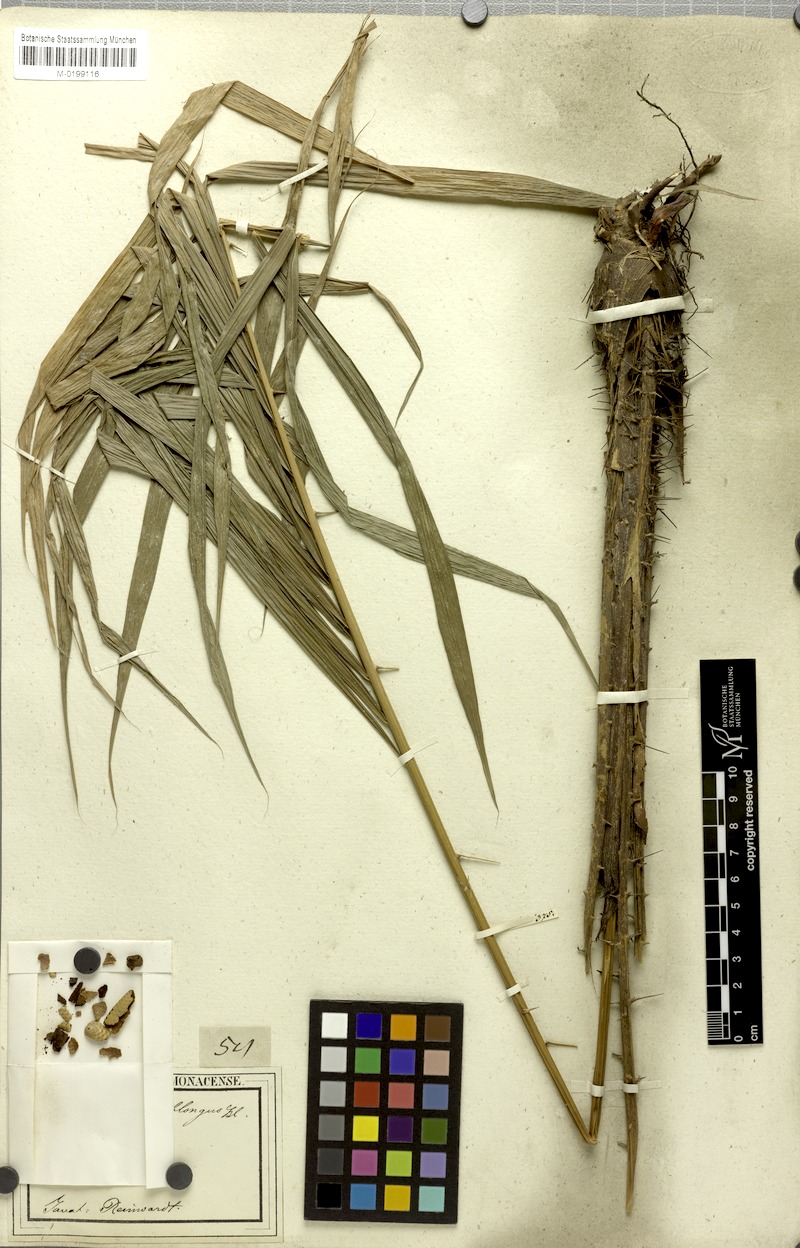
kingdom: Plantae
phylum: Tracheophyta
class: Liliopsida
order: Arecales
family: Arecaceae
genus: Calamus
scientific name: Calamus oblongus
